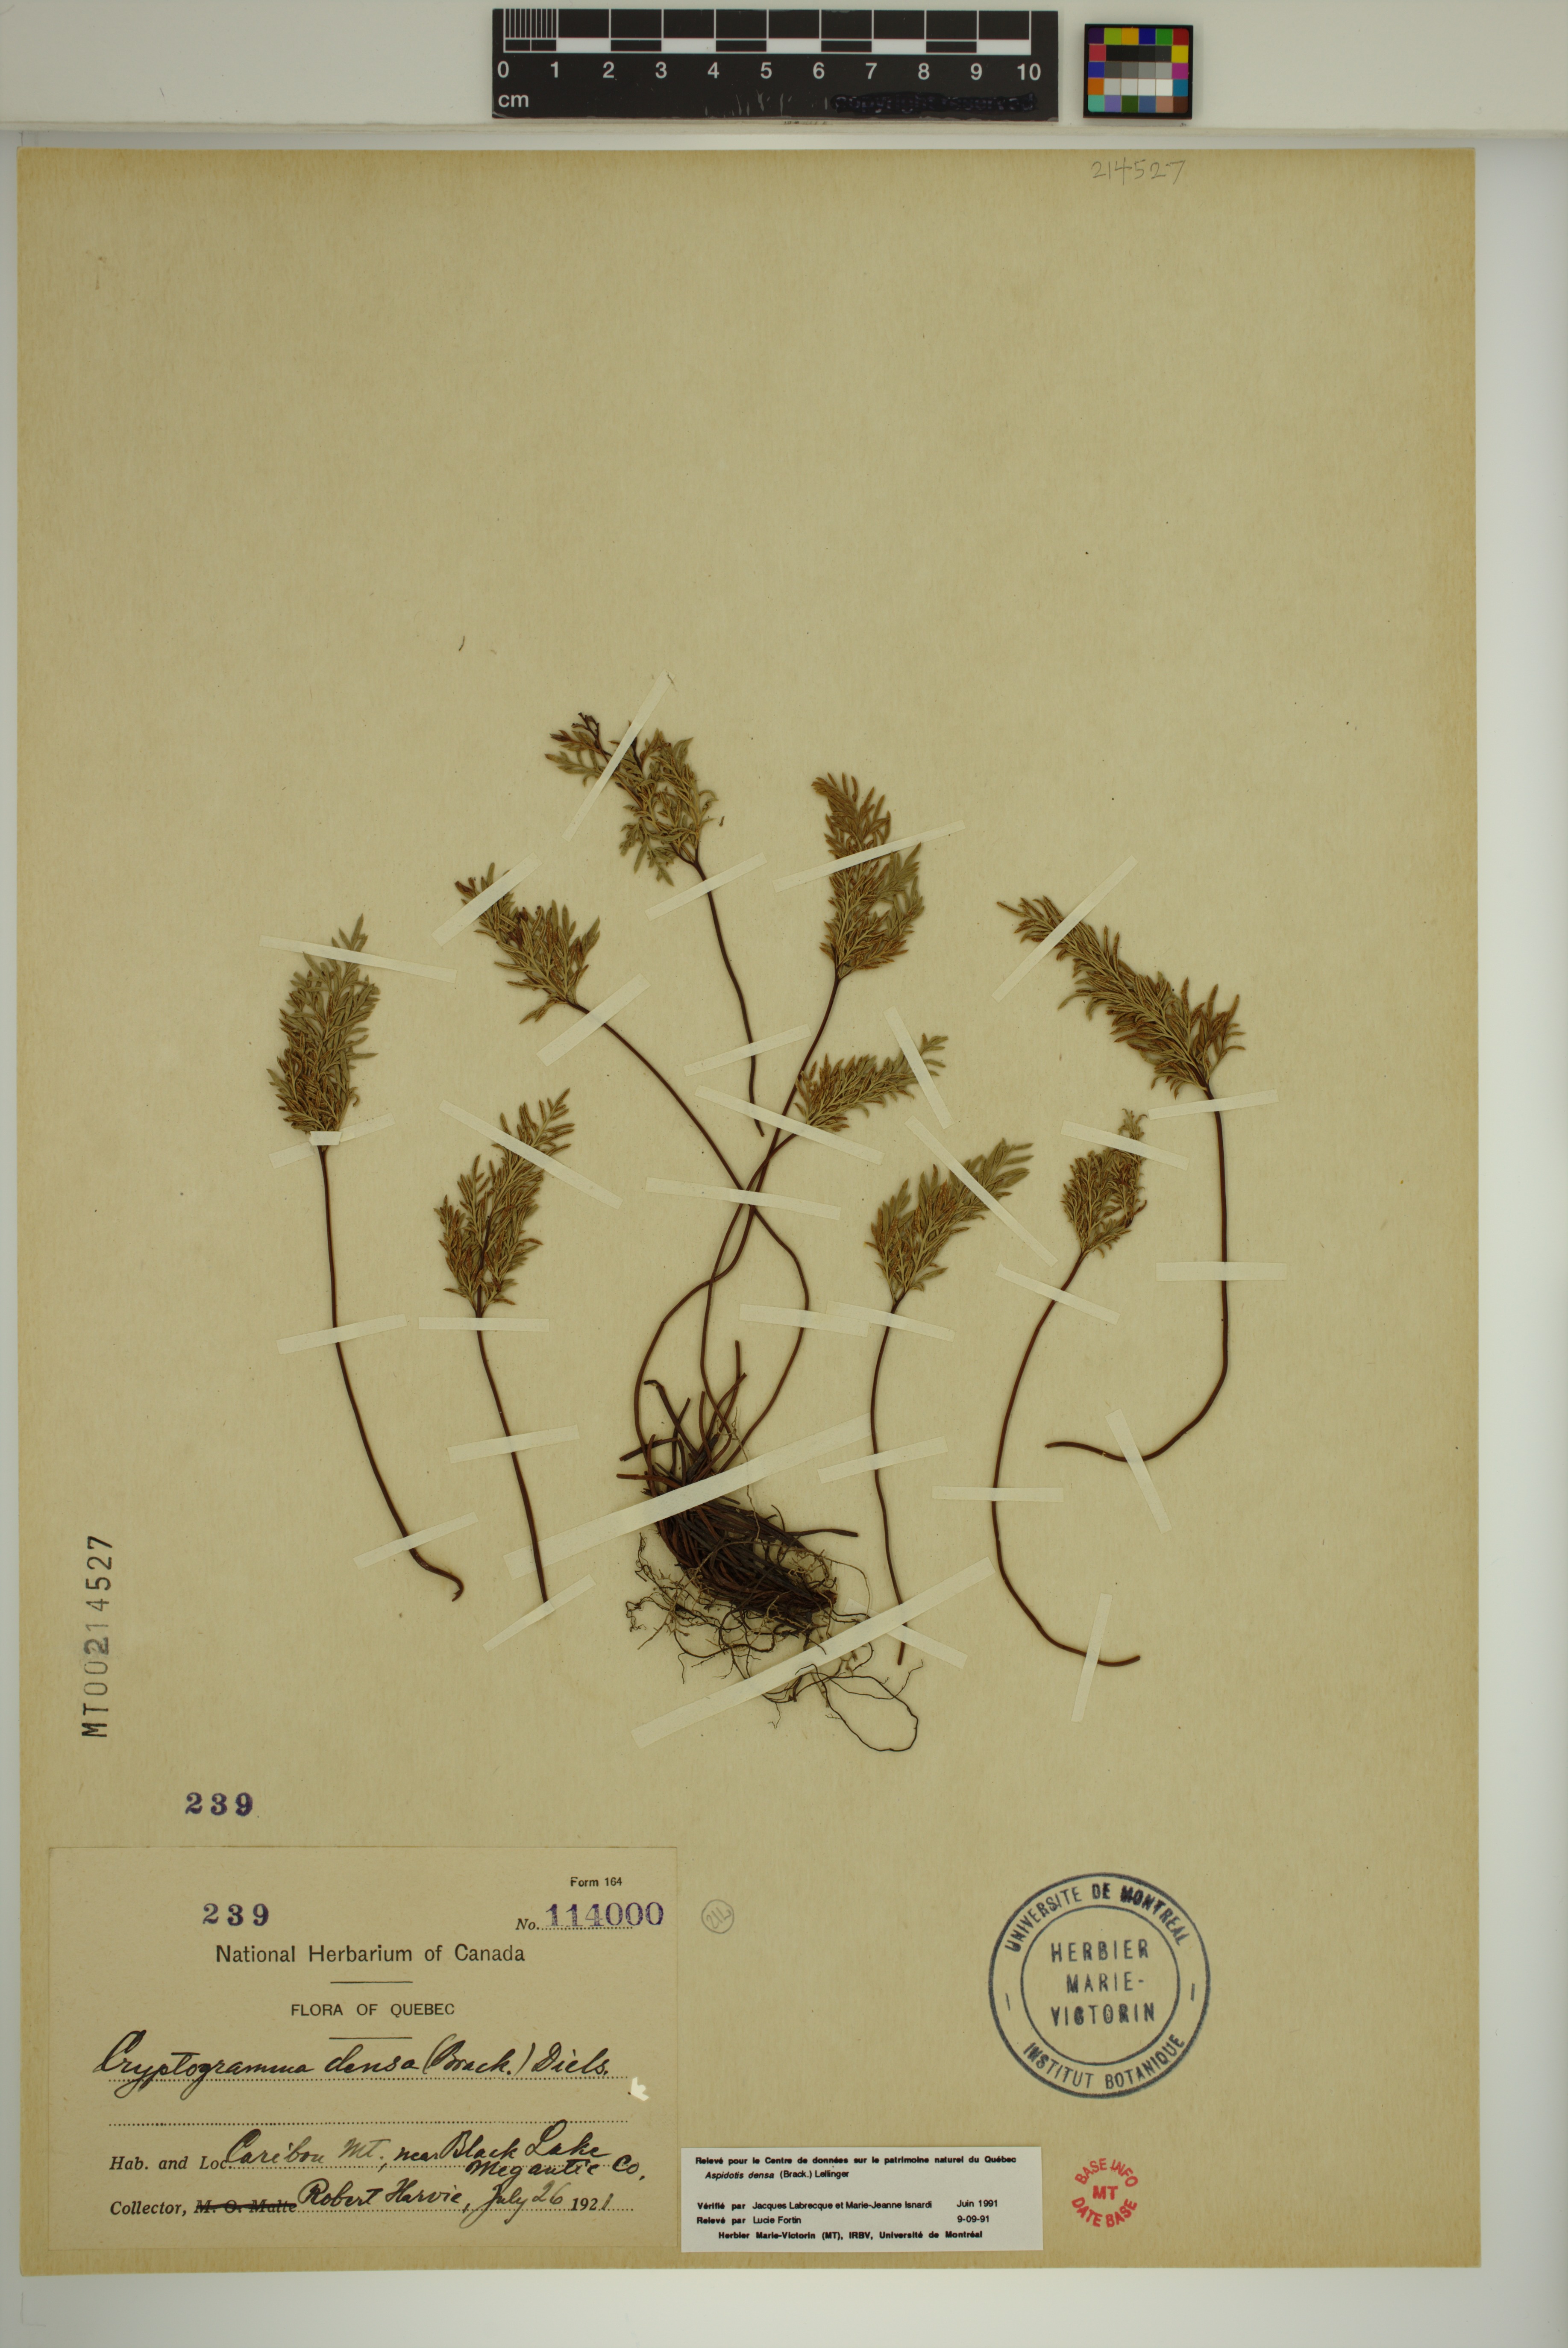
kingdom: Plantae
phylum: Tracheophyta
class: Polypodiopsida
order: Polypodiales
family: Pteridaceae
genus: Aspidotis
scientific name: Aspidotis densa
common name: Indian's dream
